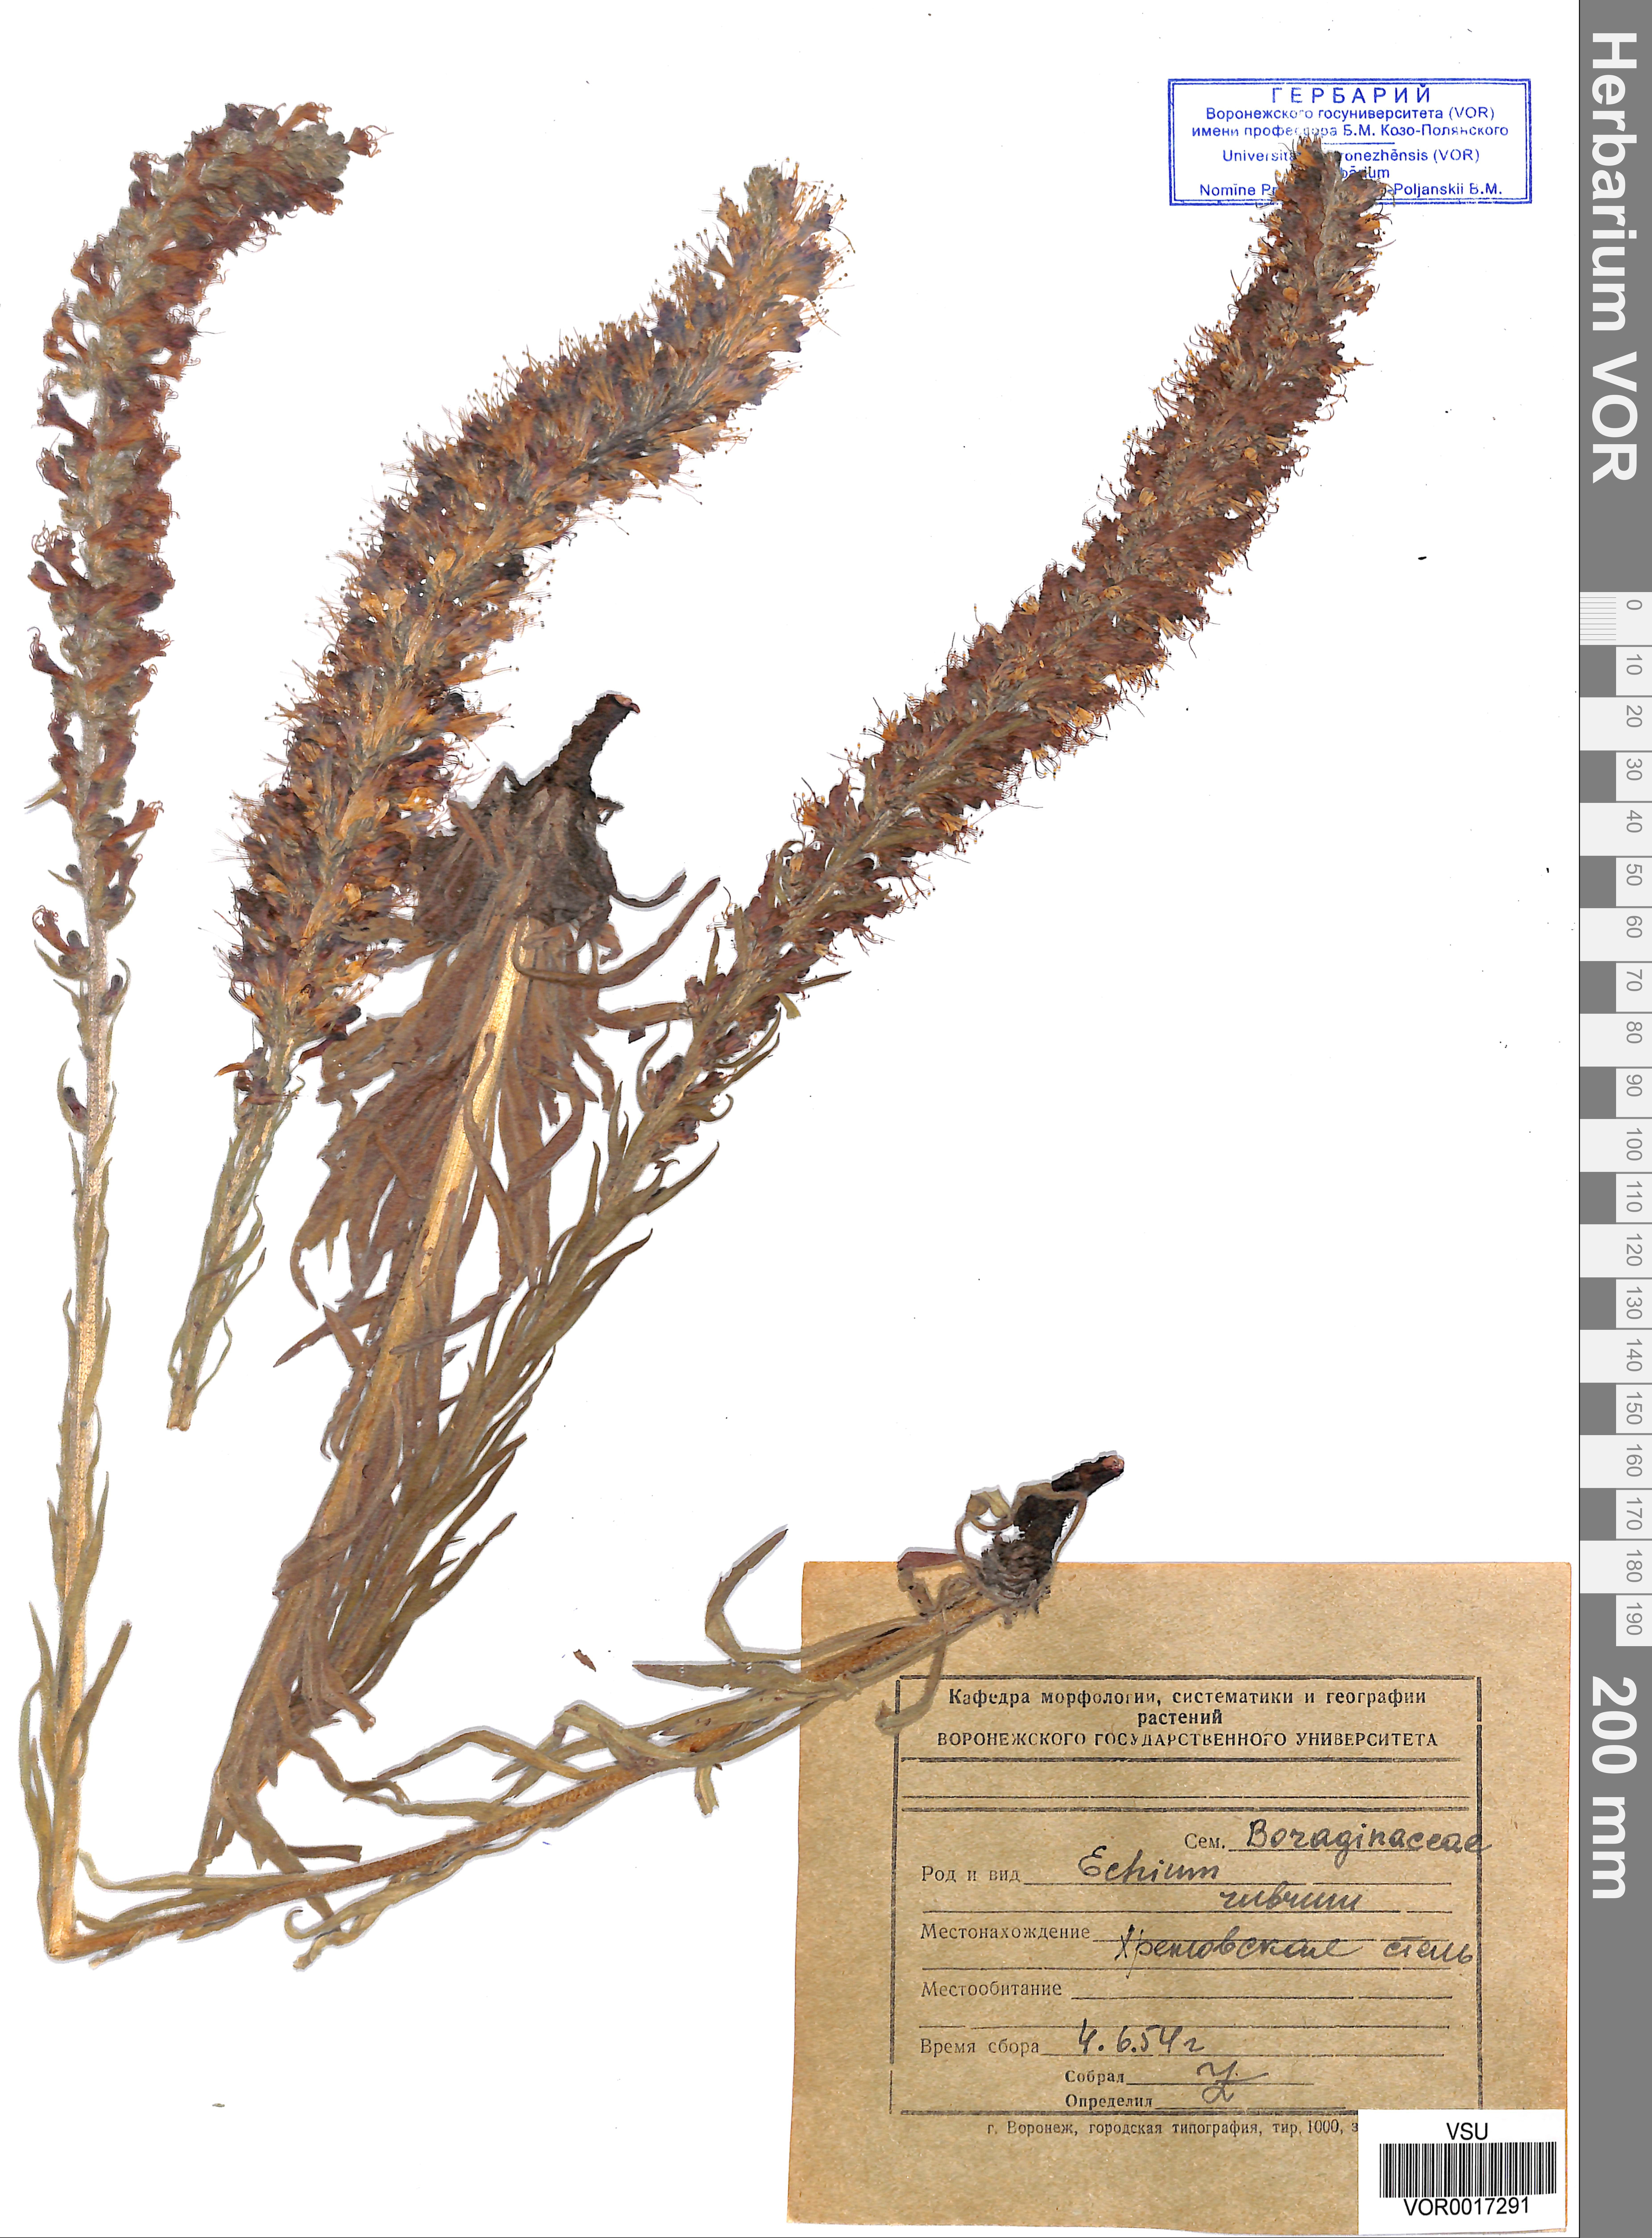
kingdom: Plantae
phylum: Tracheophyta
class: Magnoliopsida
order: Boraginales
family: Boraginaceae
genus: Pontechium
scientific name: Pontechium maculatum
